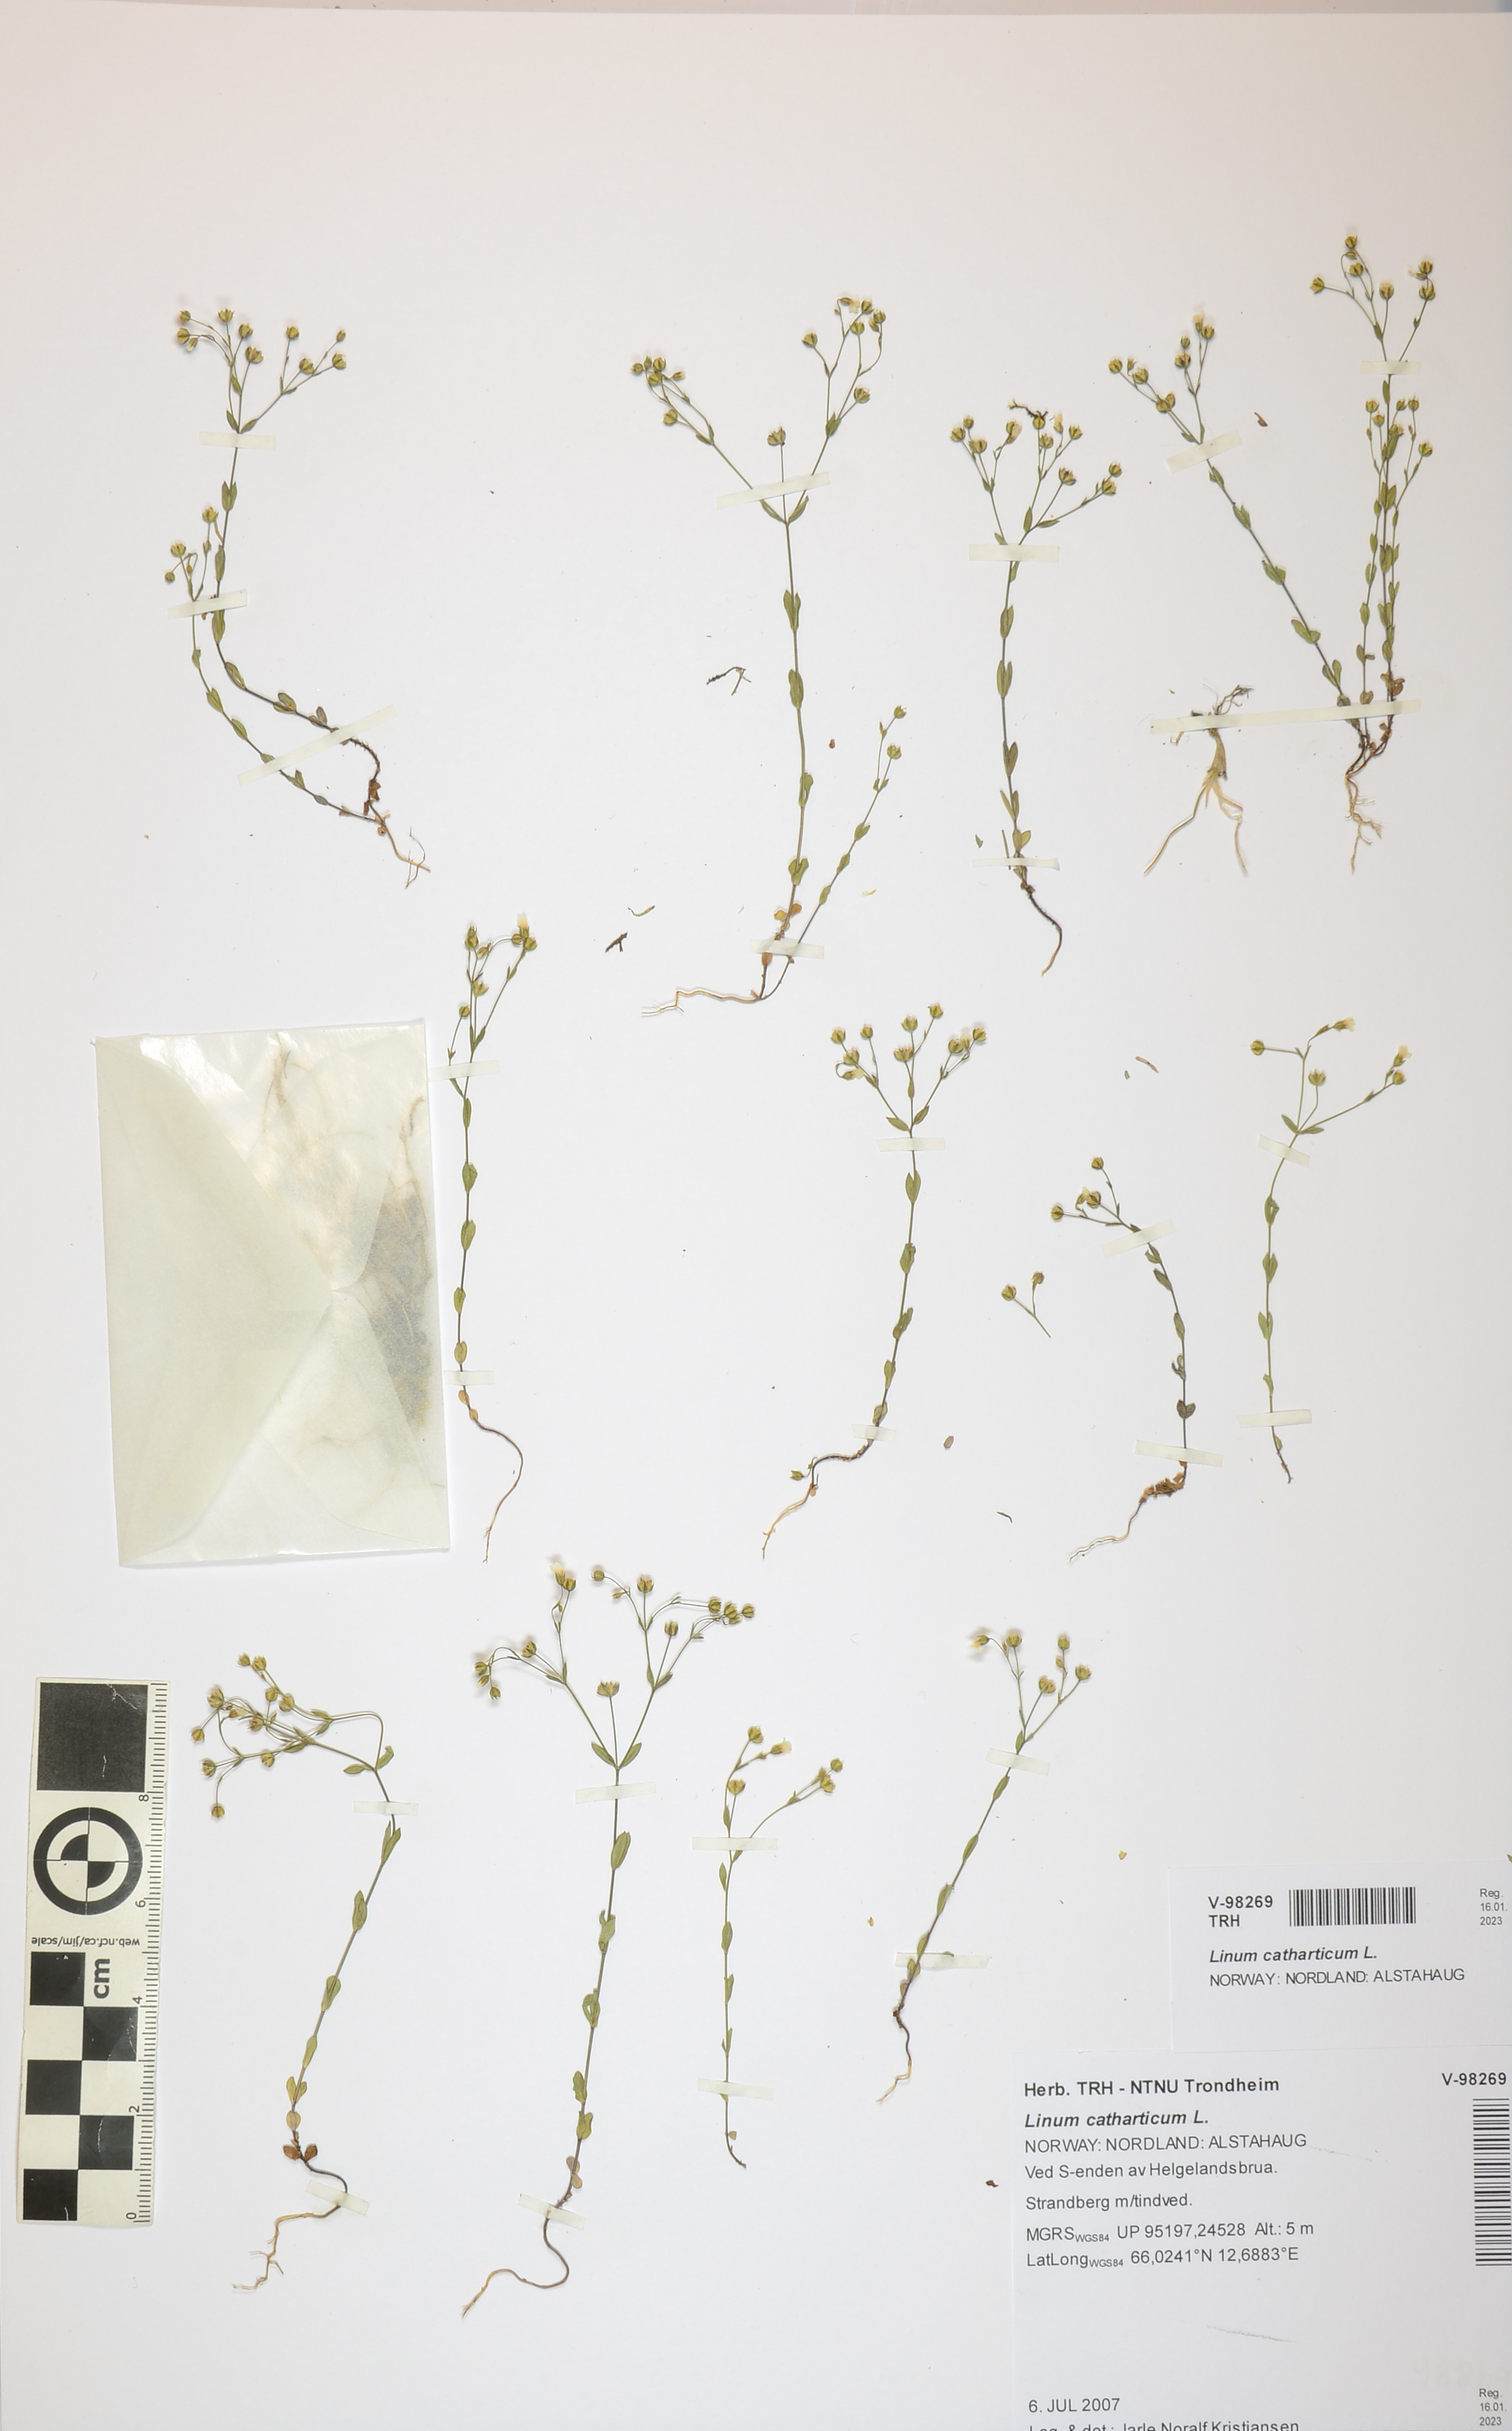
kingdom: Plantae
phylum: Tracheophyta
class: Magnoliopsida
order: Malpighiales
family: Linaceae
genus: Linum
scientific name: Linum catharticum
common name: Fairy flax
